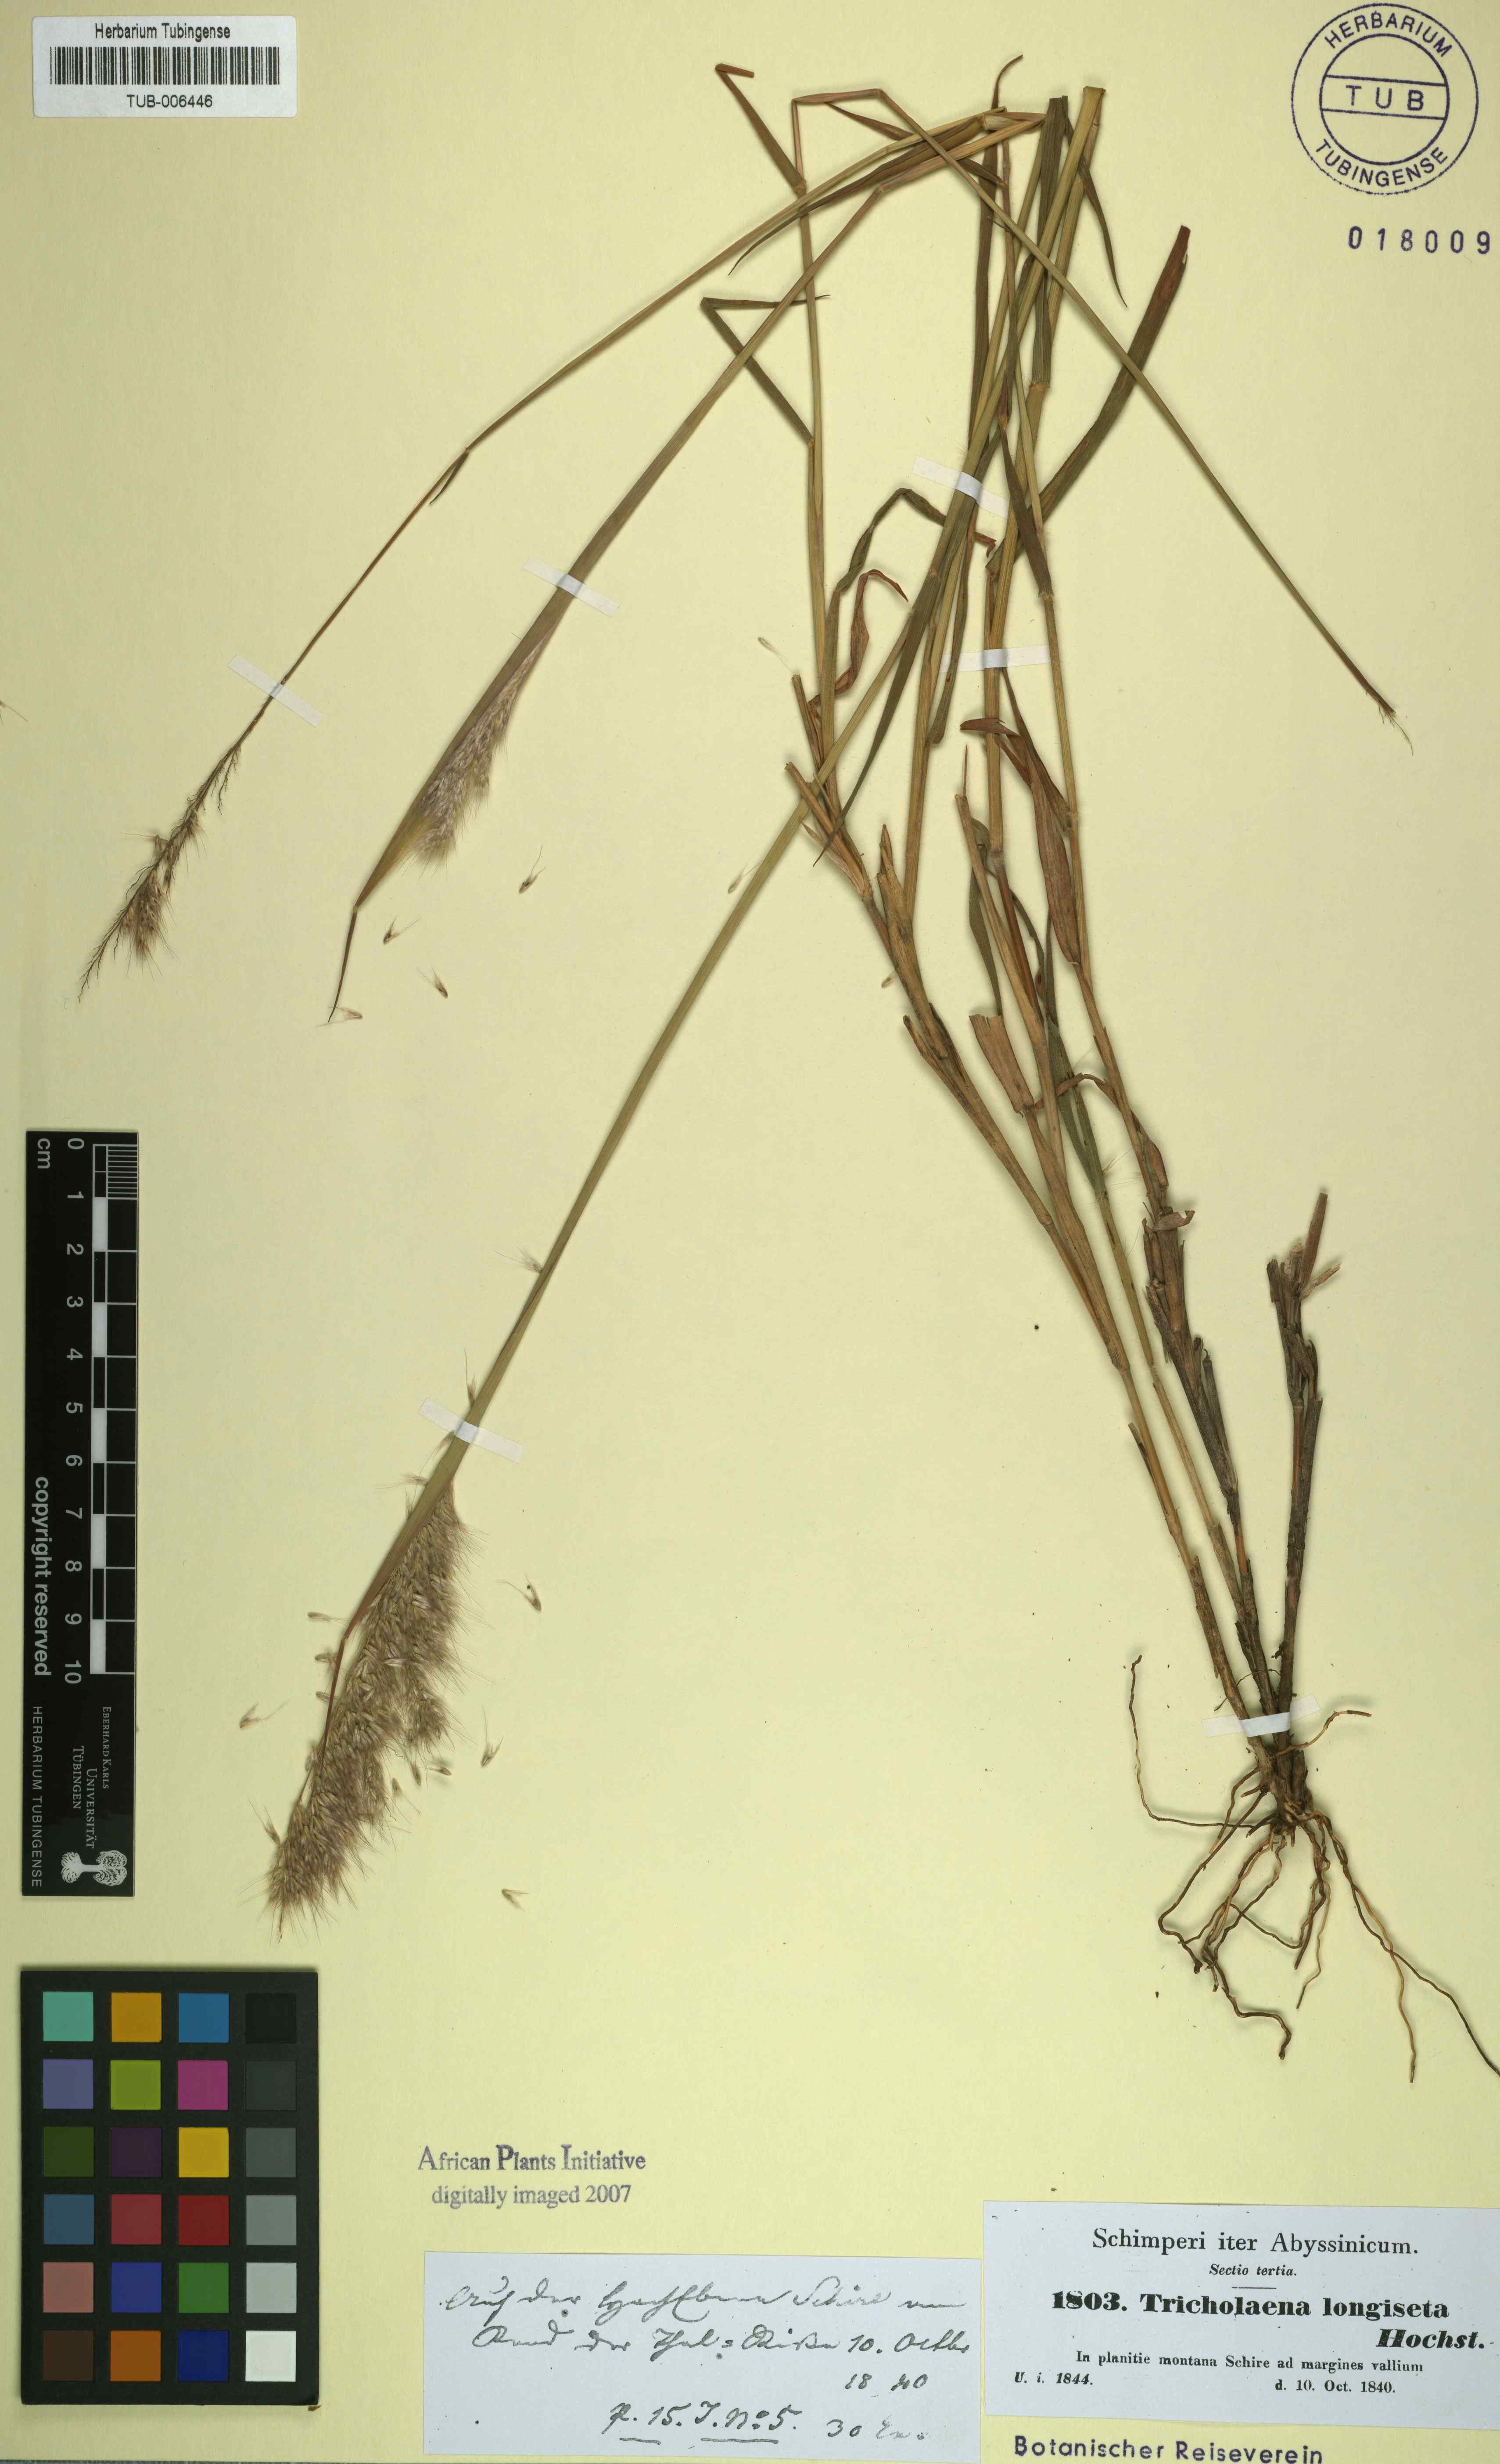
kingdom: Plantae
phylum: Tracheophyta
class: Liliopsida
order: Poales
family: Poaceae
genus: Melinis
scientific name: Melinis longiseta
